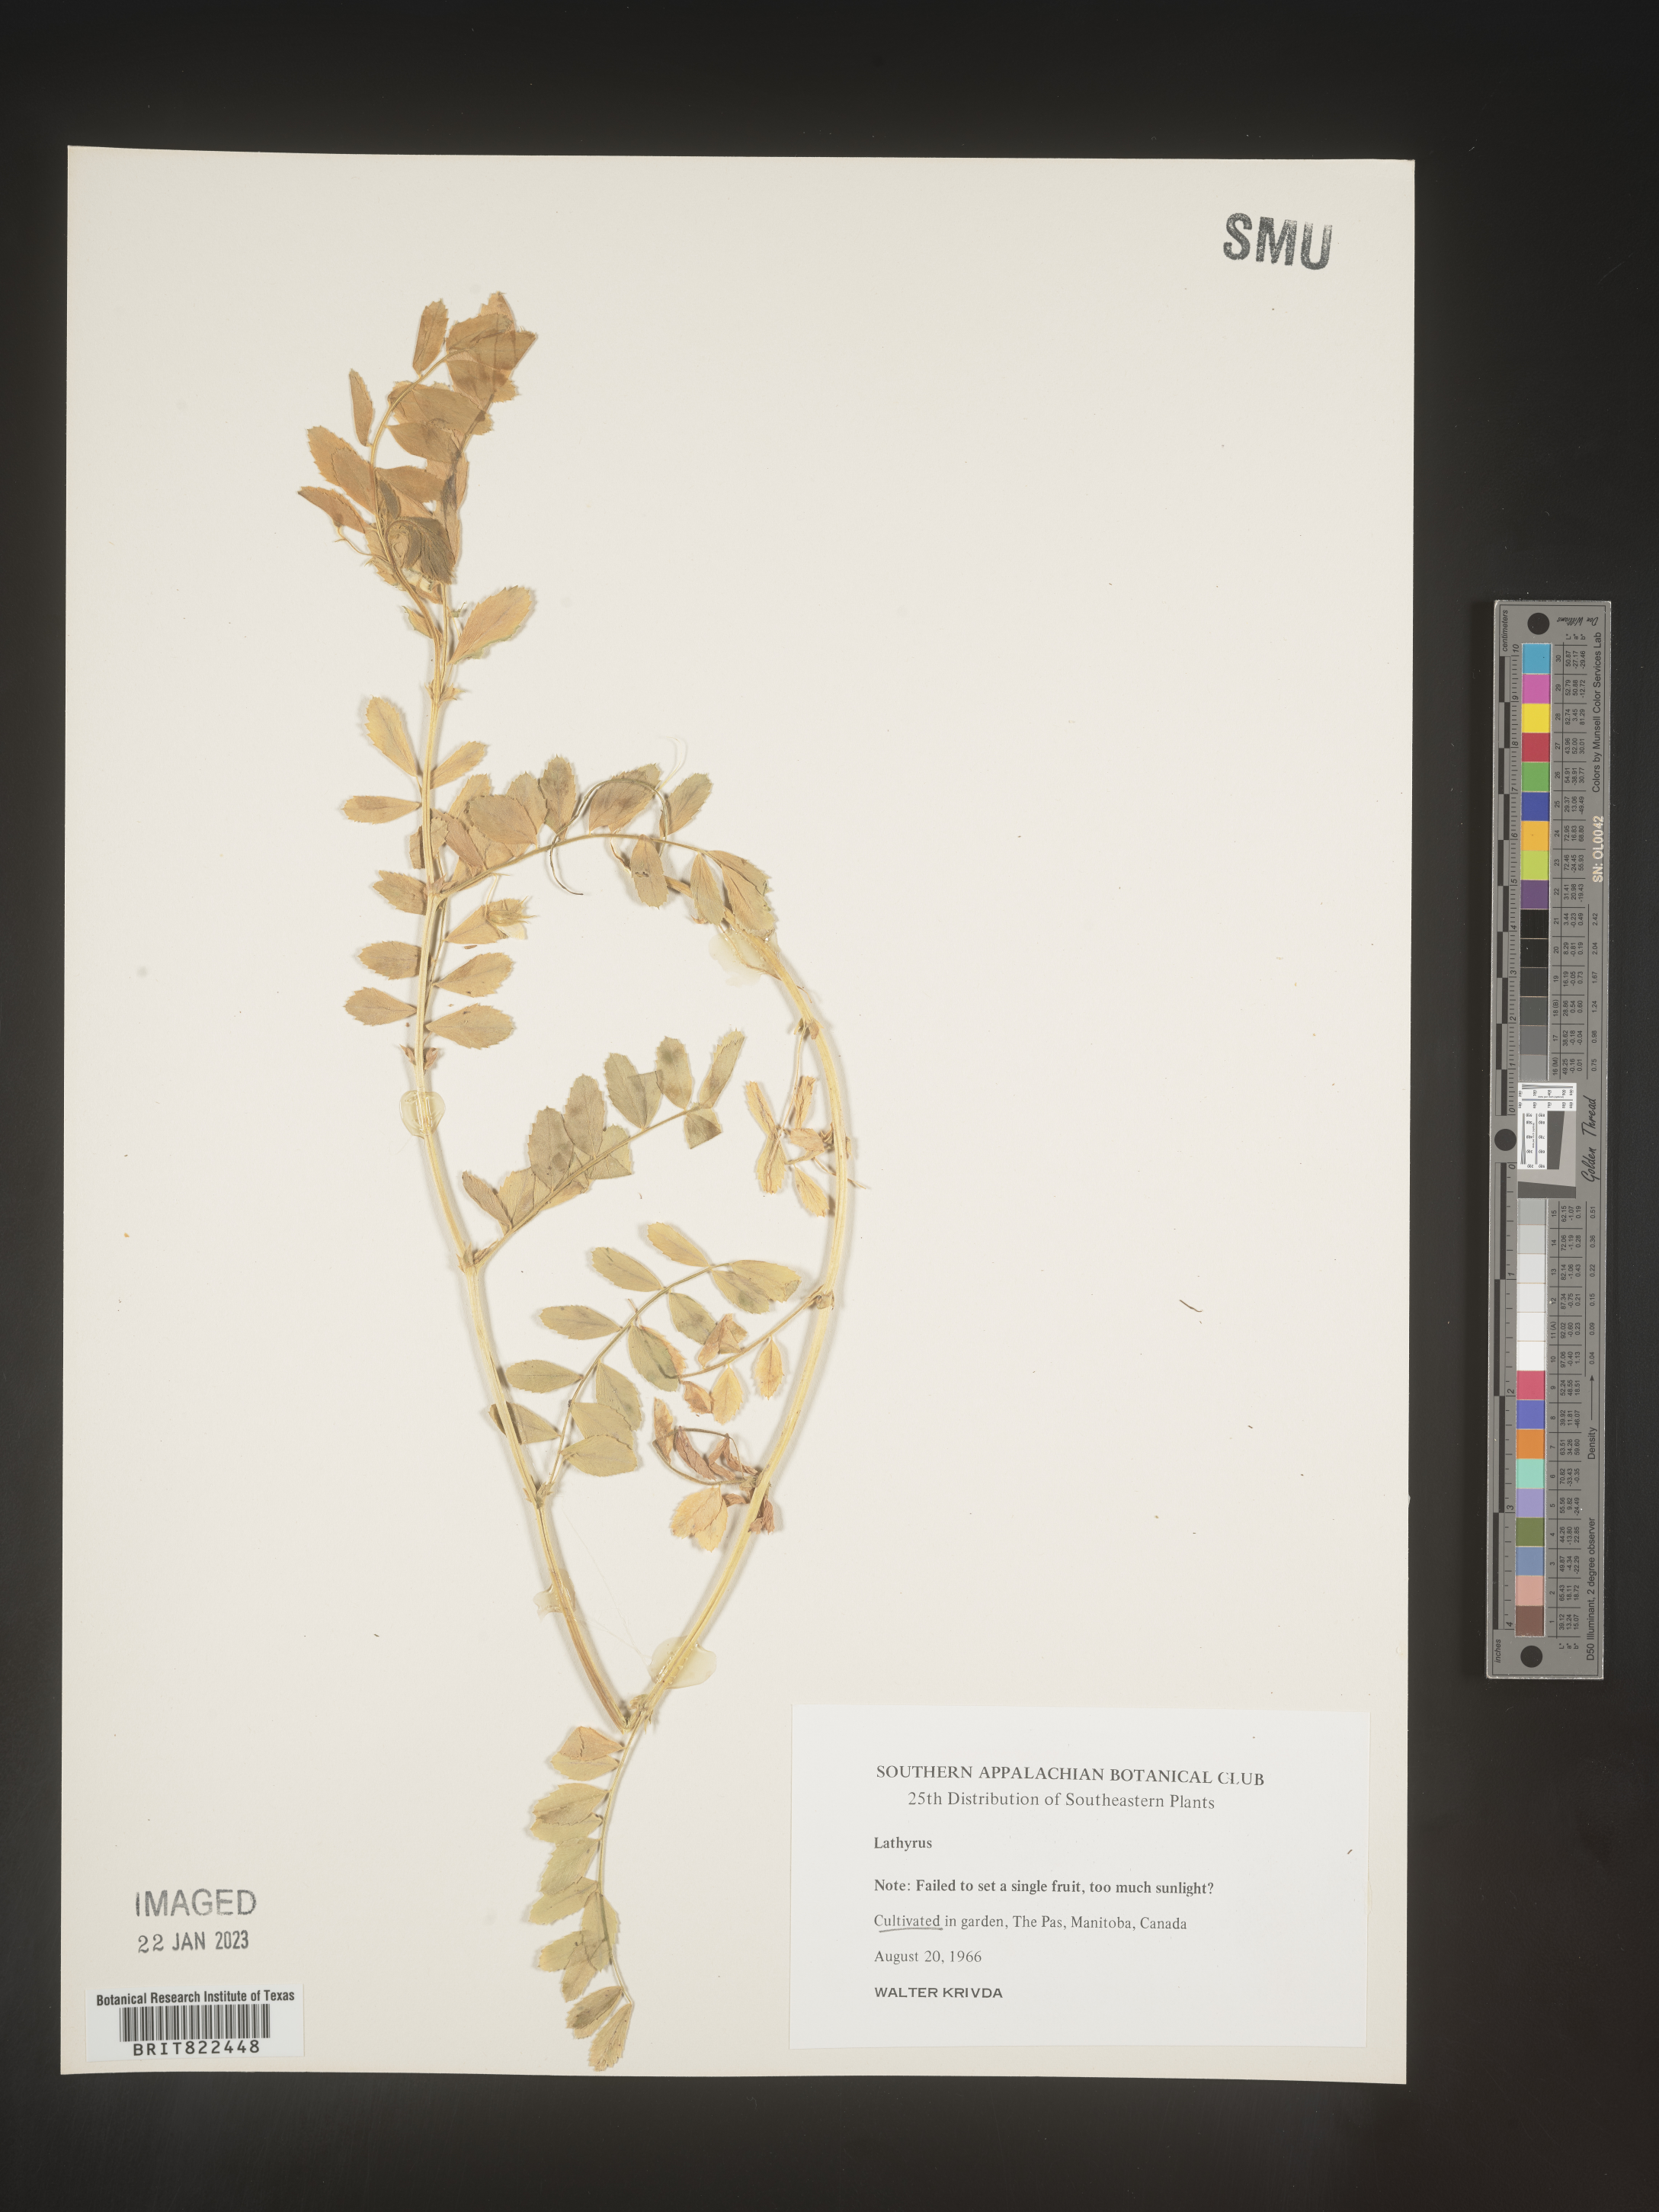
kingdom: Plantae
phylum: Tracheophyta
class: Magnoliopsida
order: Fabales
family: Fabaceae
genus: Lathyrus
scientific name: Lathyrus
